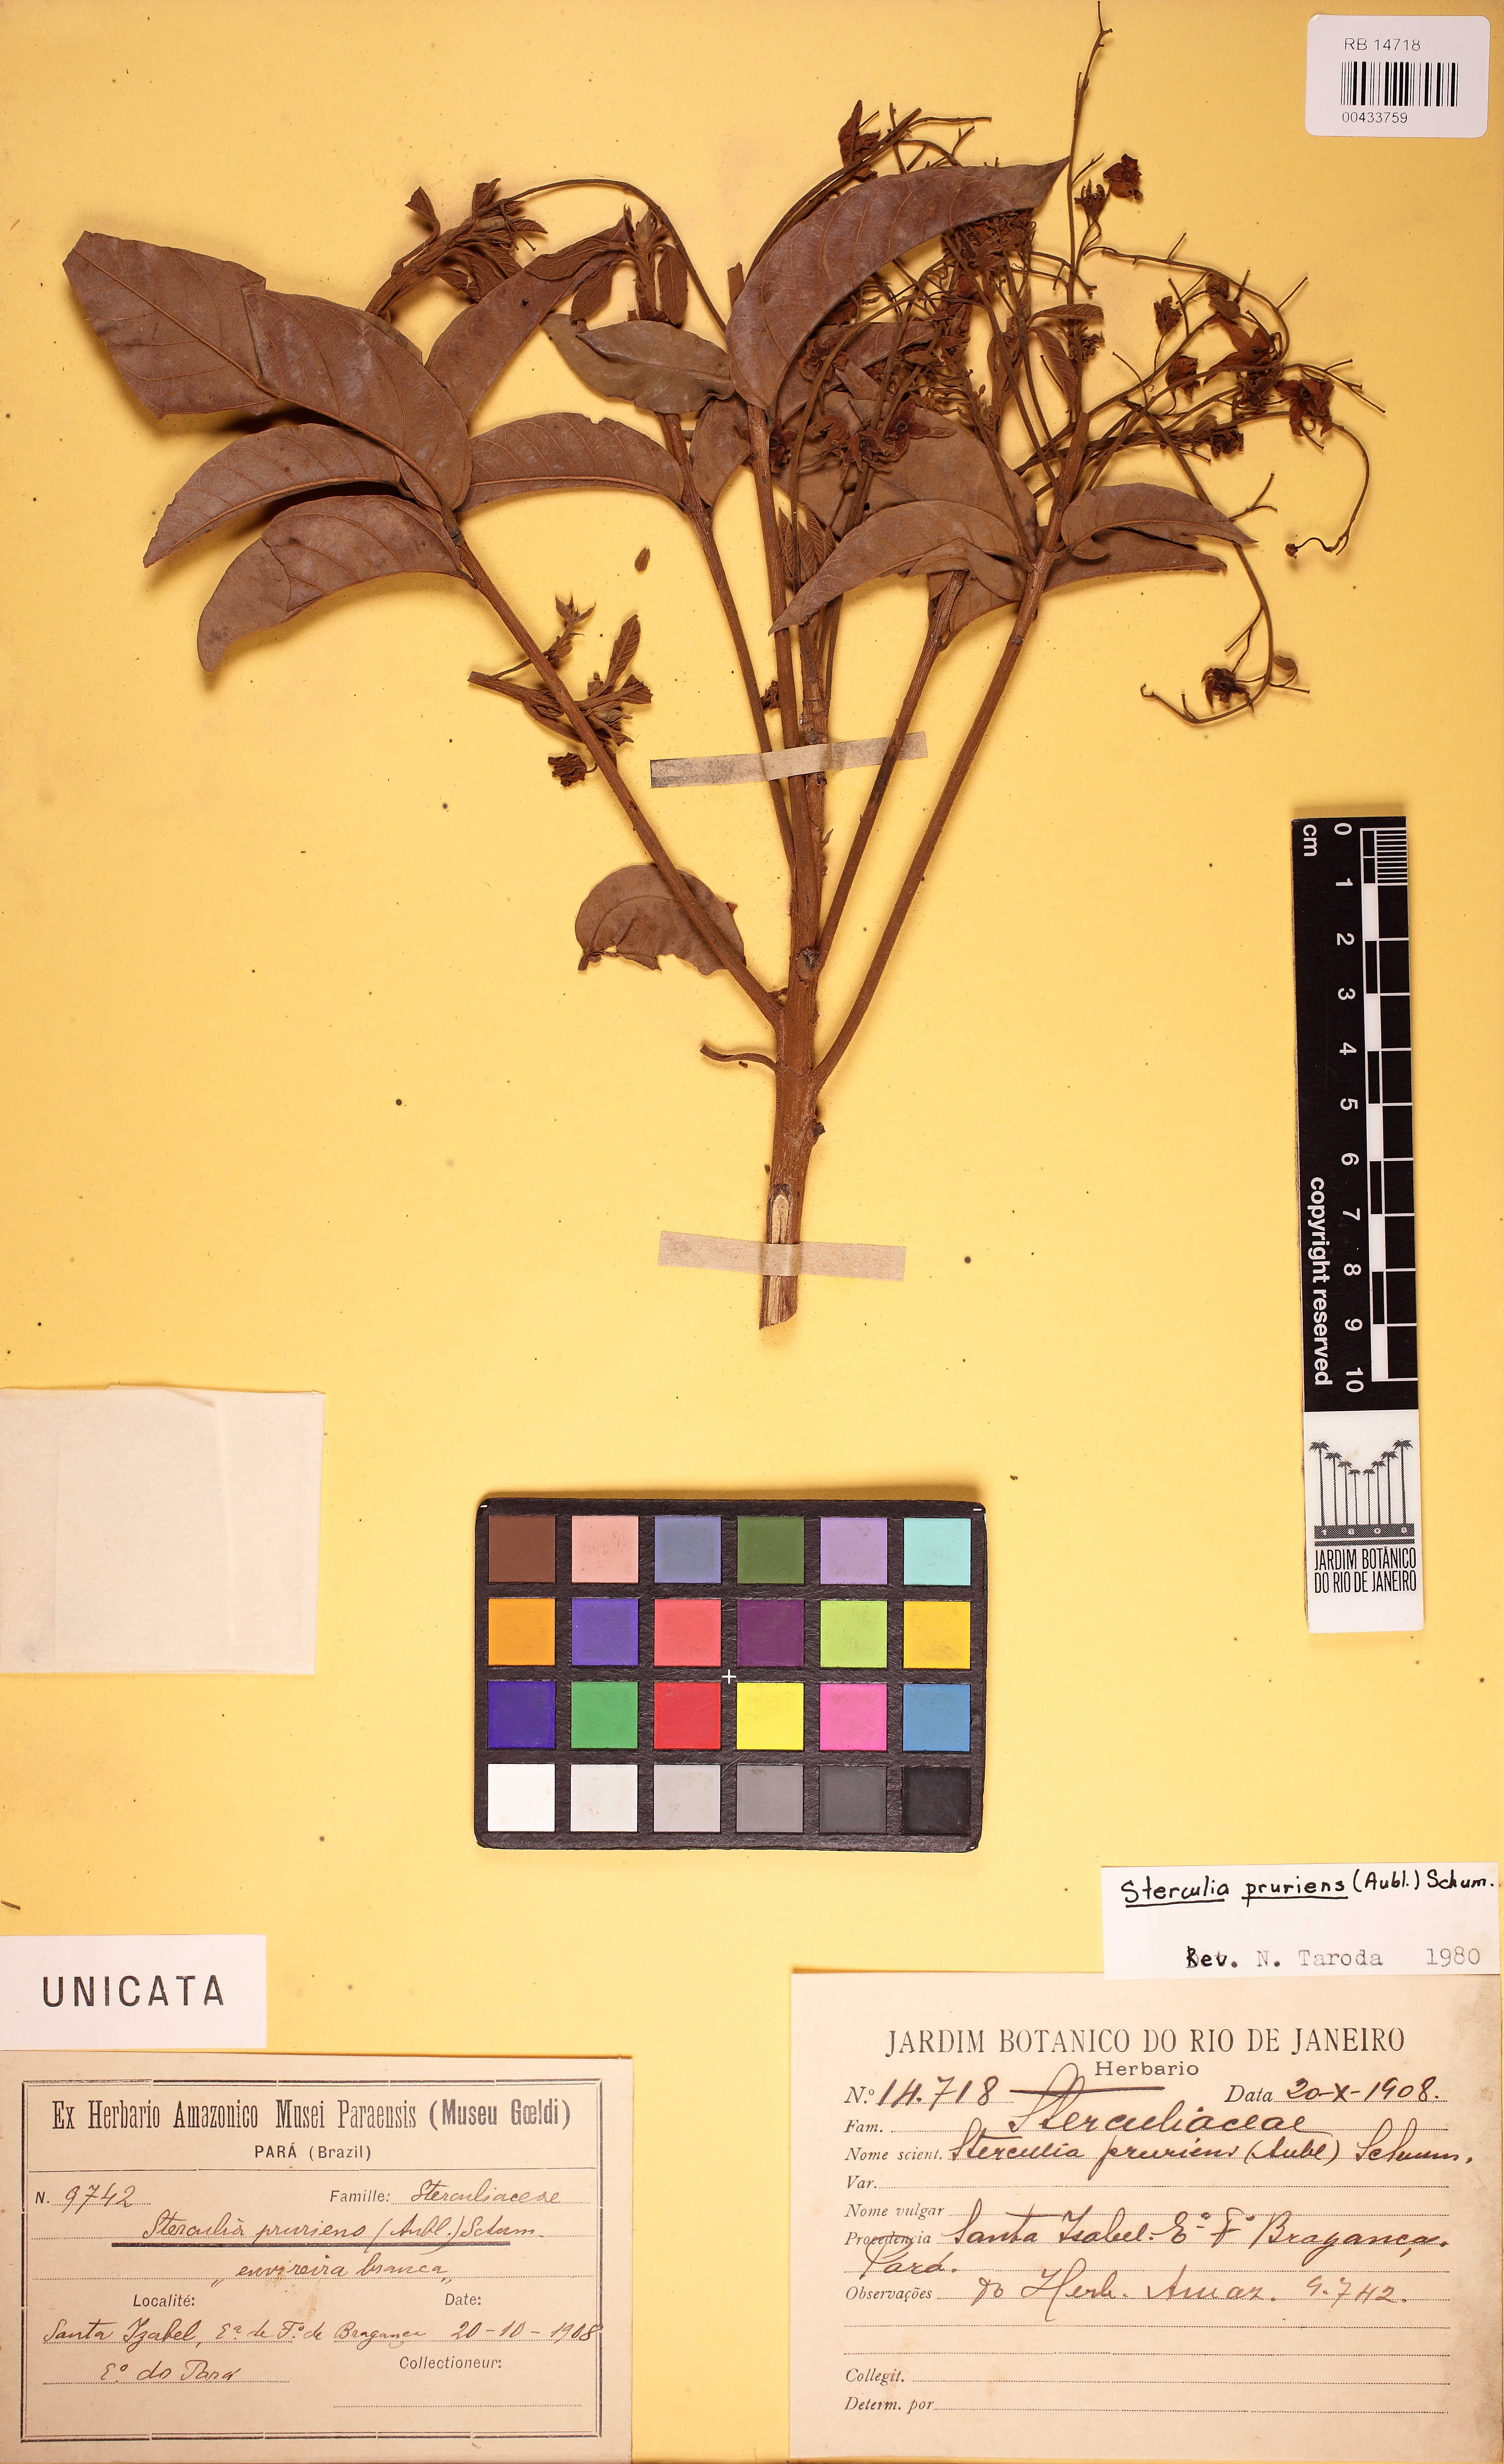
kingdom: Plantae
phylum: Tracheophyta
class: Magnoliopsida
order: Malvales
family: Malvaceae
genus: Sterculia
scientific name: Sterculia pruriens
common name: Grand mahot
